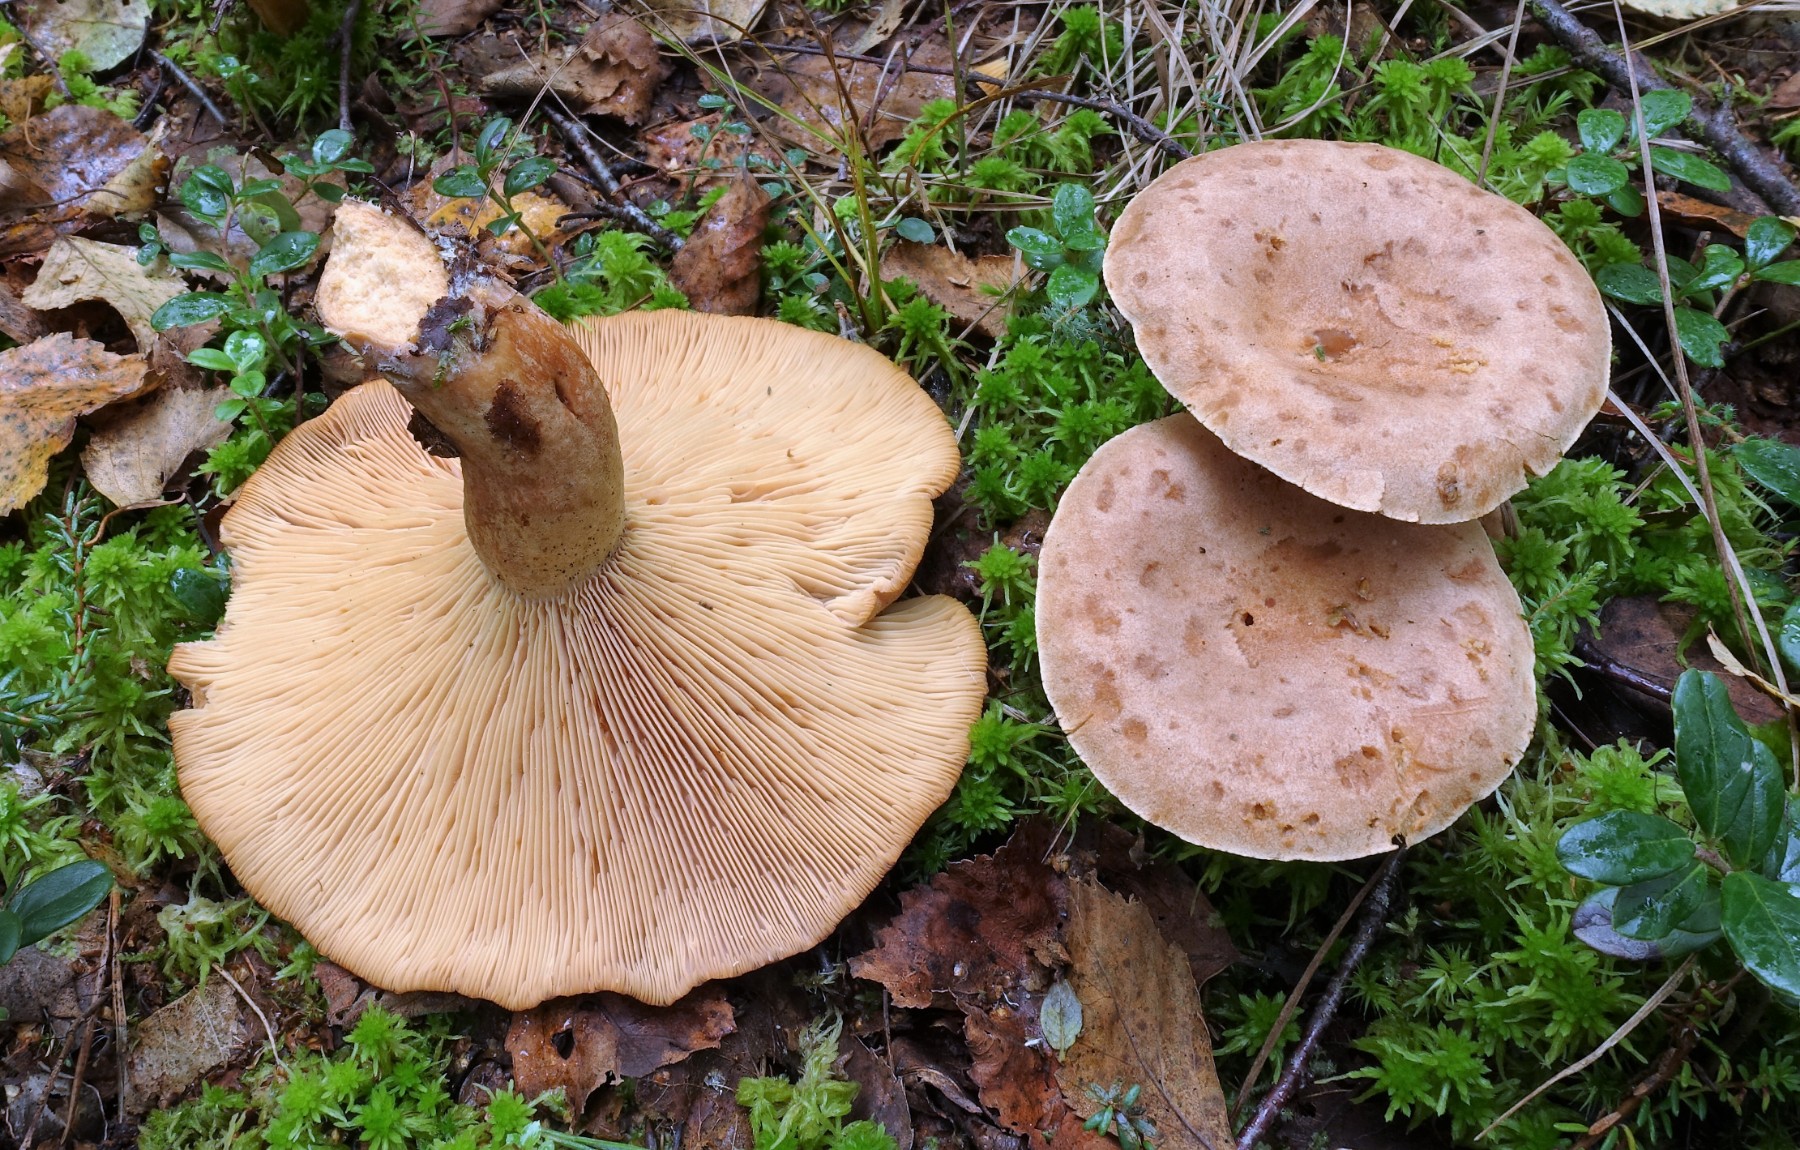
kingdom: Fungi
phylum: Basidiomycota
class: Agaricomycetes
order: Russulales
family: Russulaceae
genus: Lactarius
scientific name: Lactarius helvus
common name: mose-mælkehat
